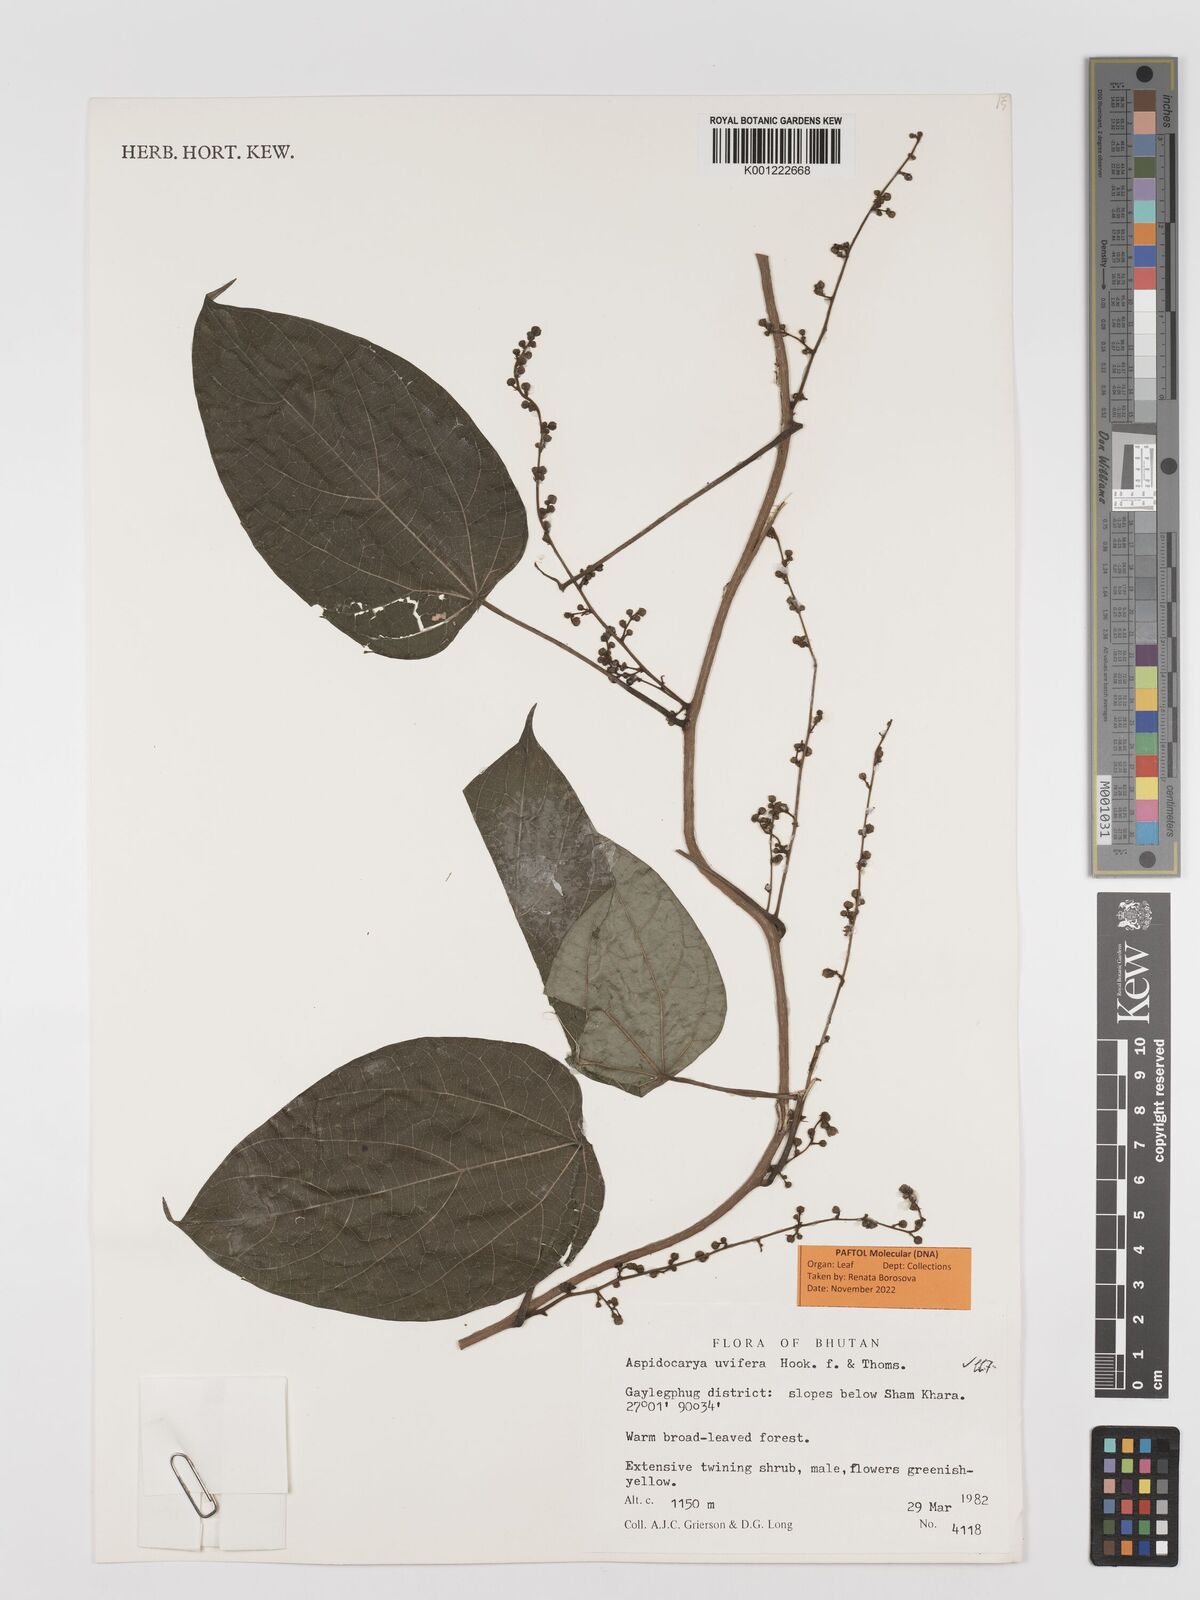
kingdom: Plantae
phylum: Tracheophyta
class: Magnoliopsida
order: Ranunculales
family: Menispermaceae
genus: Aspidocarya
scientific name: Aspidocarya uvifera
